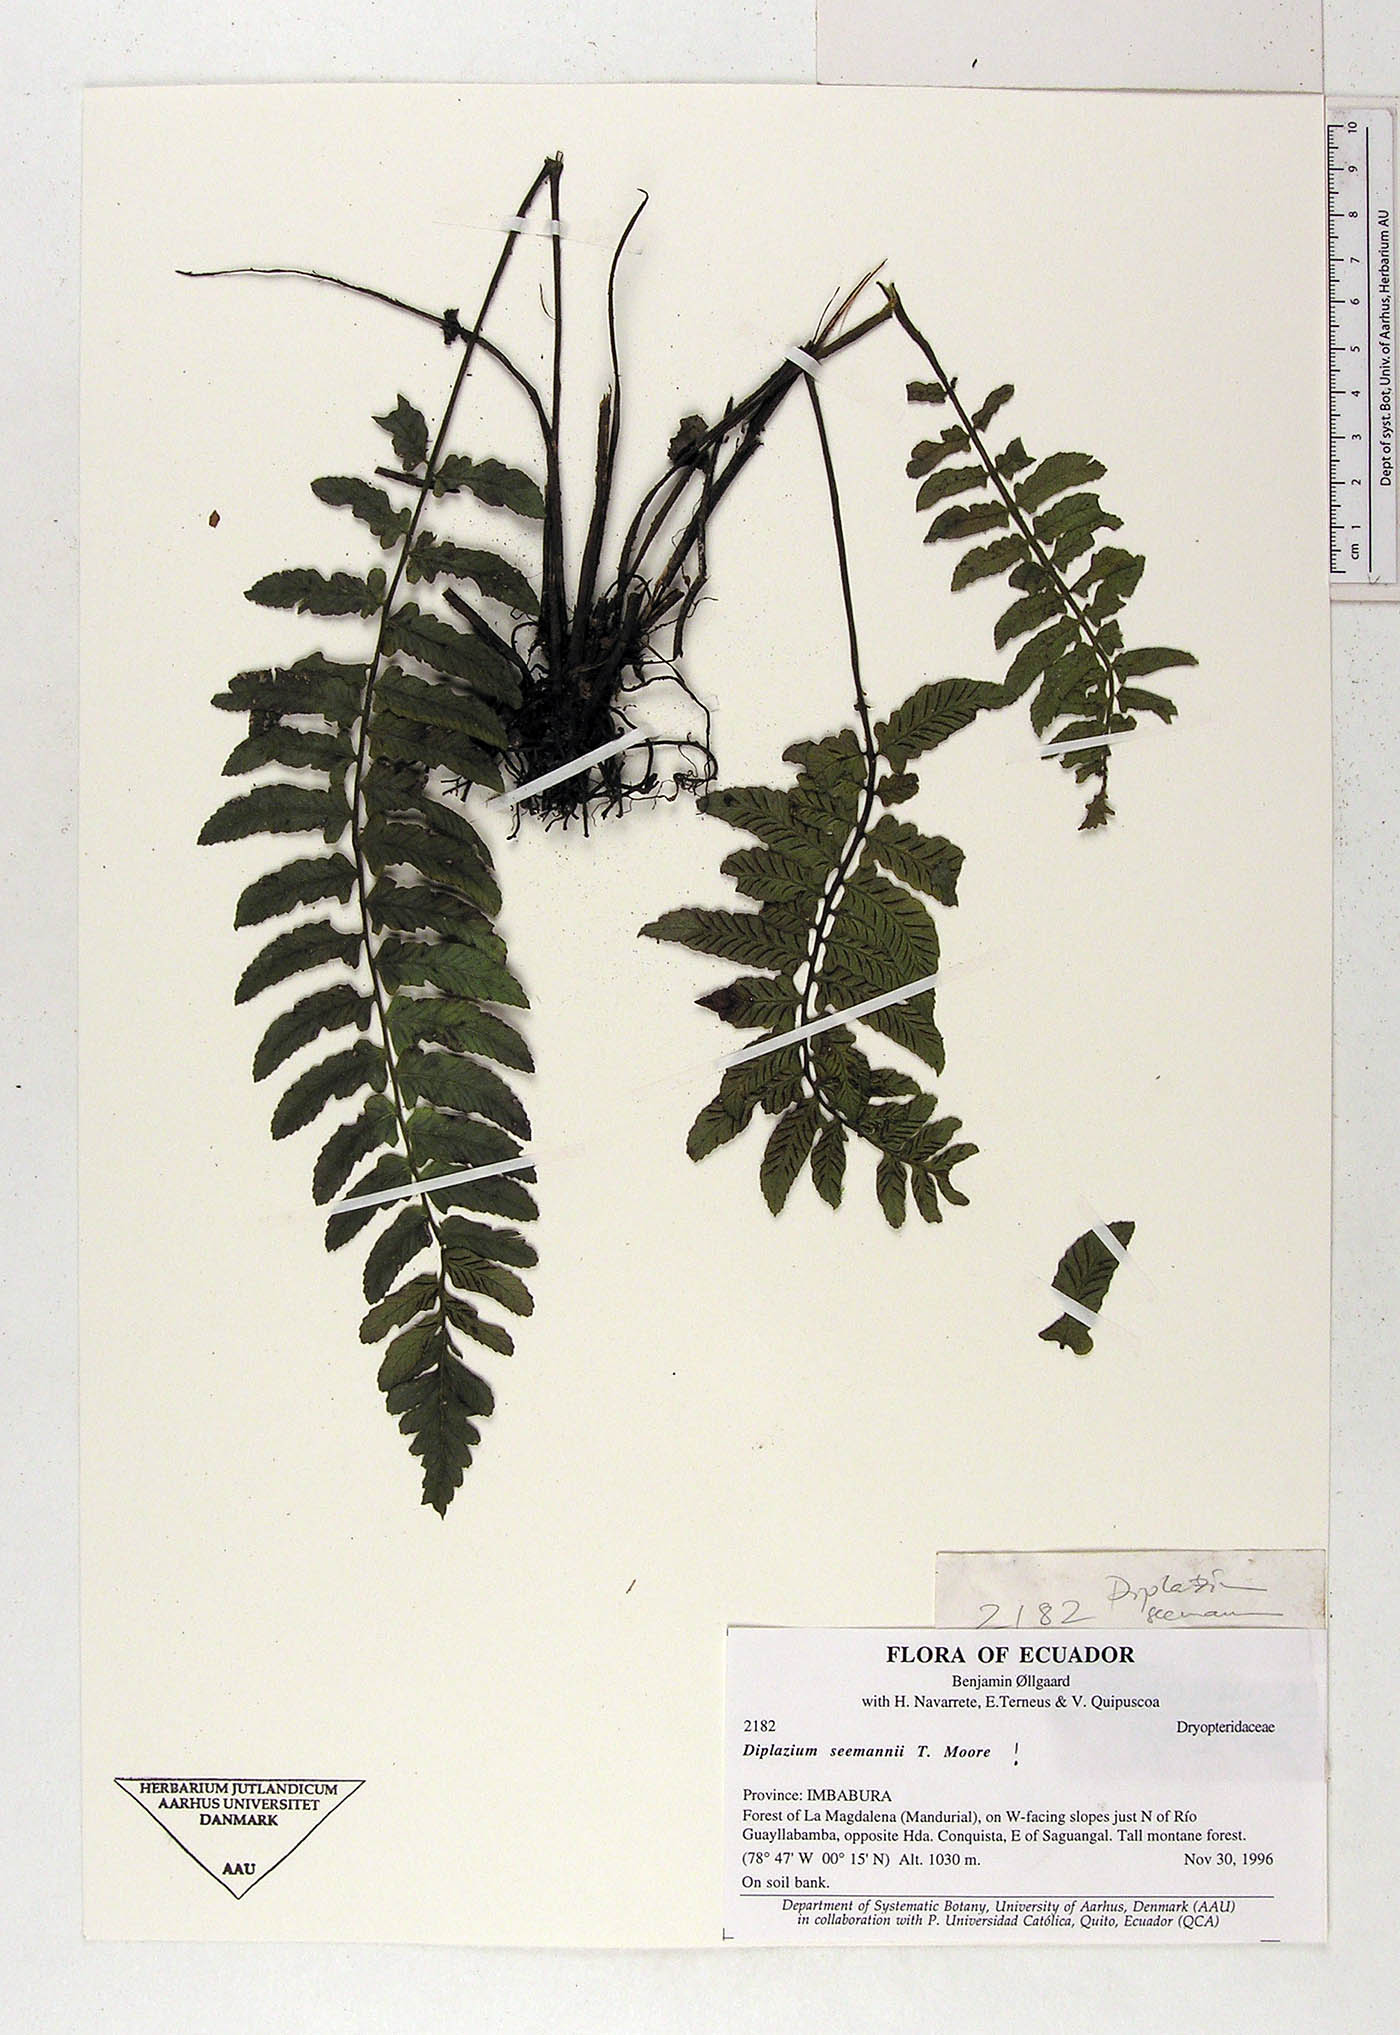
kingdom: Plantae
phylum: Tracheophyta
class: Polypodiopsida
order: Polypodiales
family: Athyriaceae
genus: Diplazium
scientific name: Diplazium seemannii
